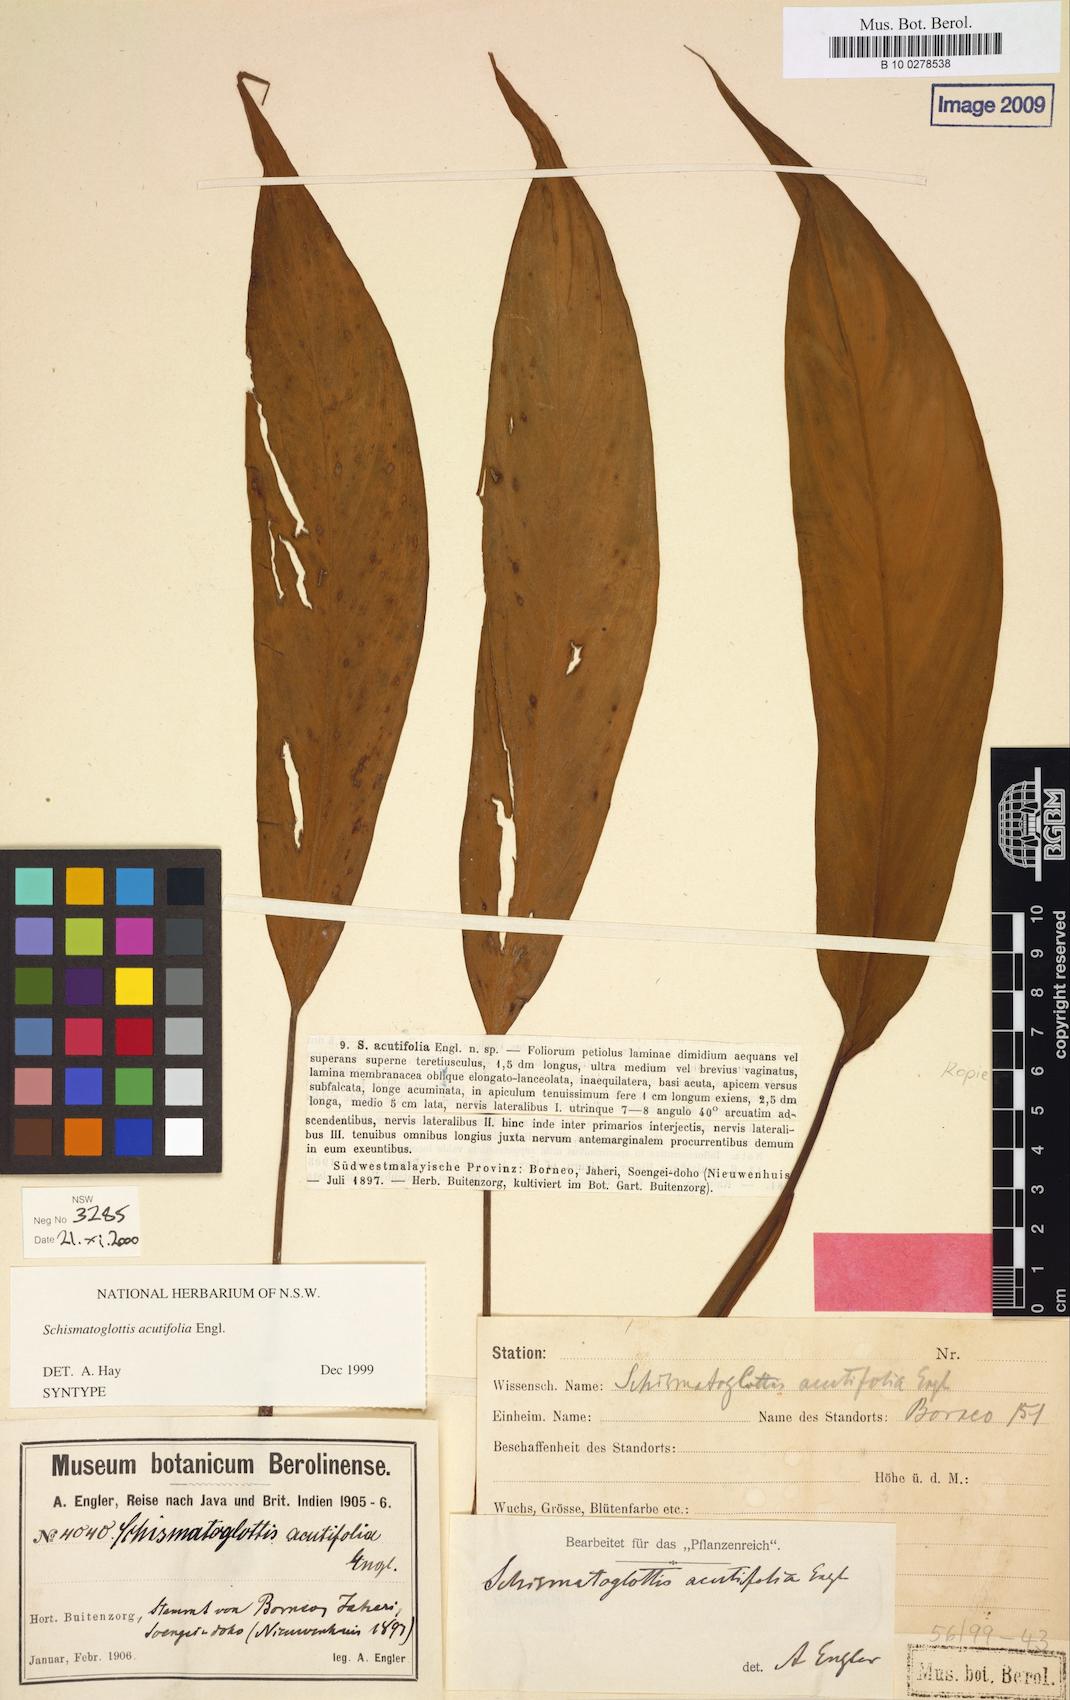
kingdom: Plantae
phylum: Tracheophyta
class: Liliopsida
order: Alismatales
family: Araceae
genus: Schismatoglottis
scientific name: Schismatoglottis acutifolia
